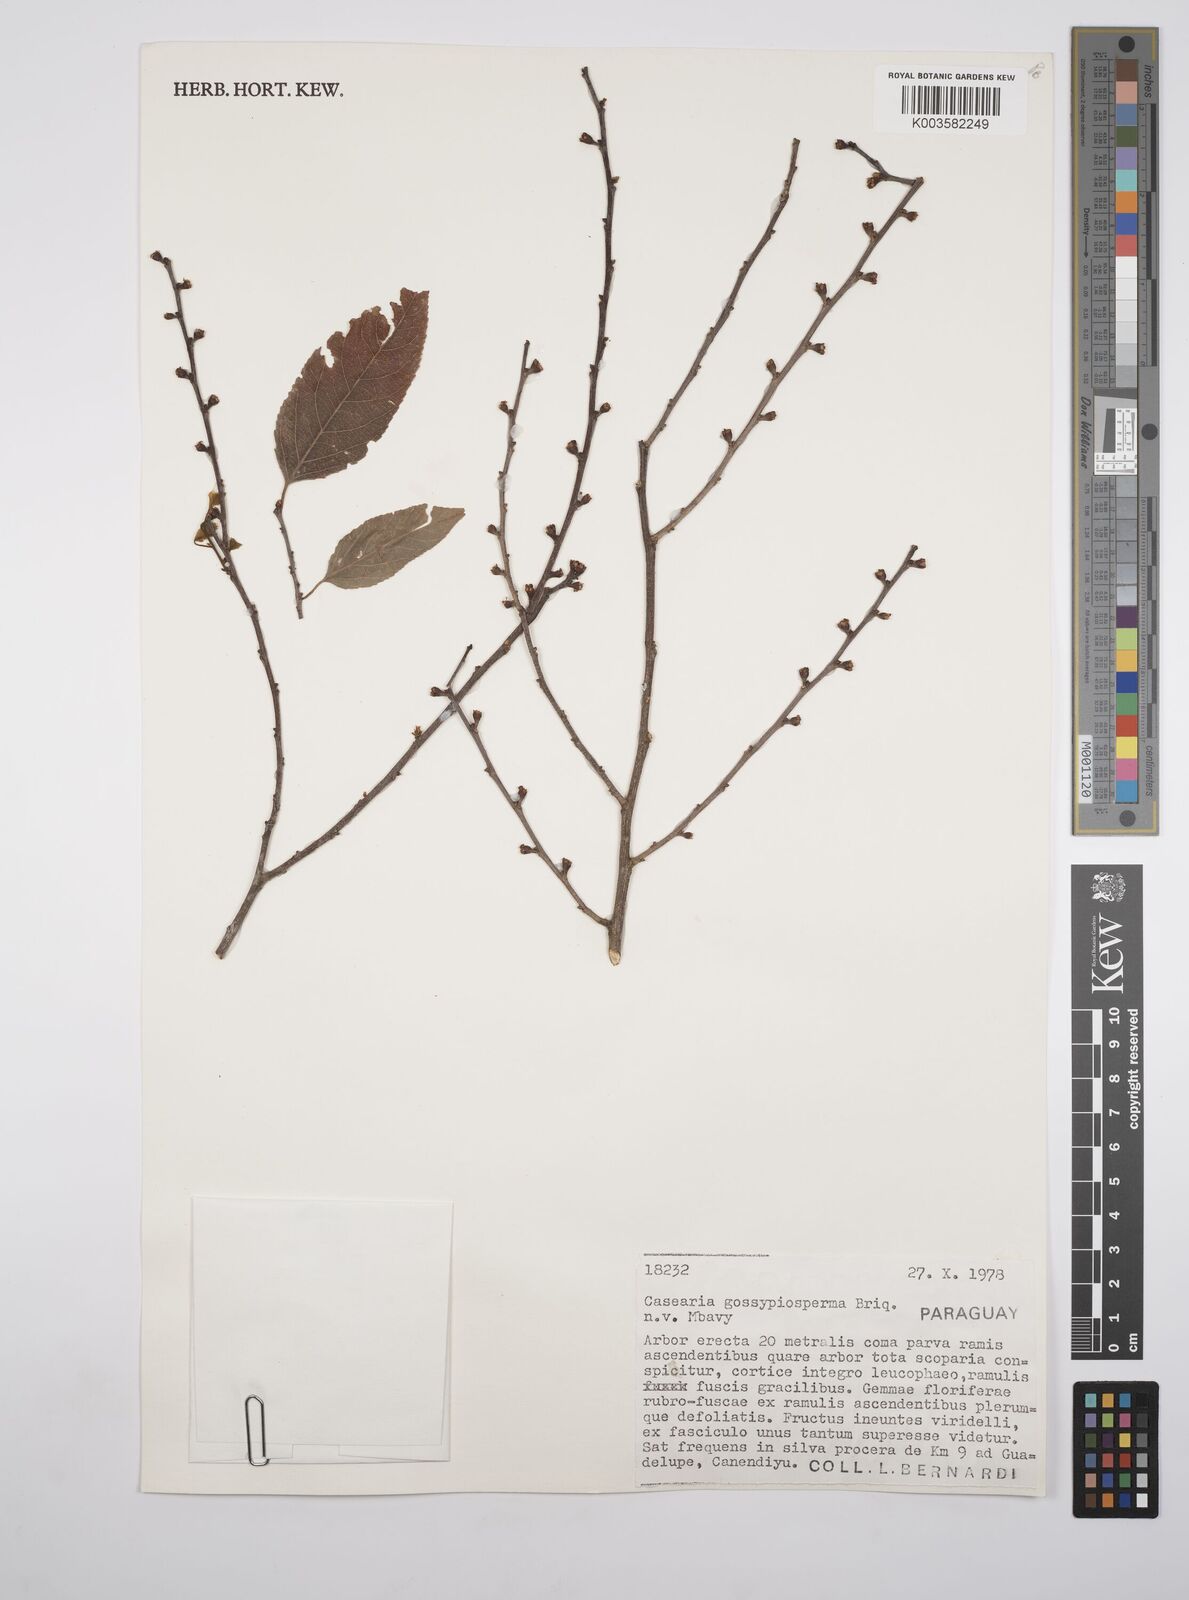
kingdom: Plantae
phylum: Tracheophyta
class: Magnoliopsida
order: Malpighiales
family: Salicaceae
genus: Casearia
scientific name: Casearia gossypiosperma
